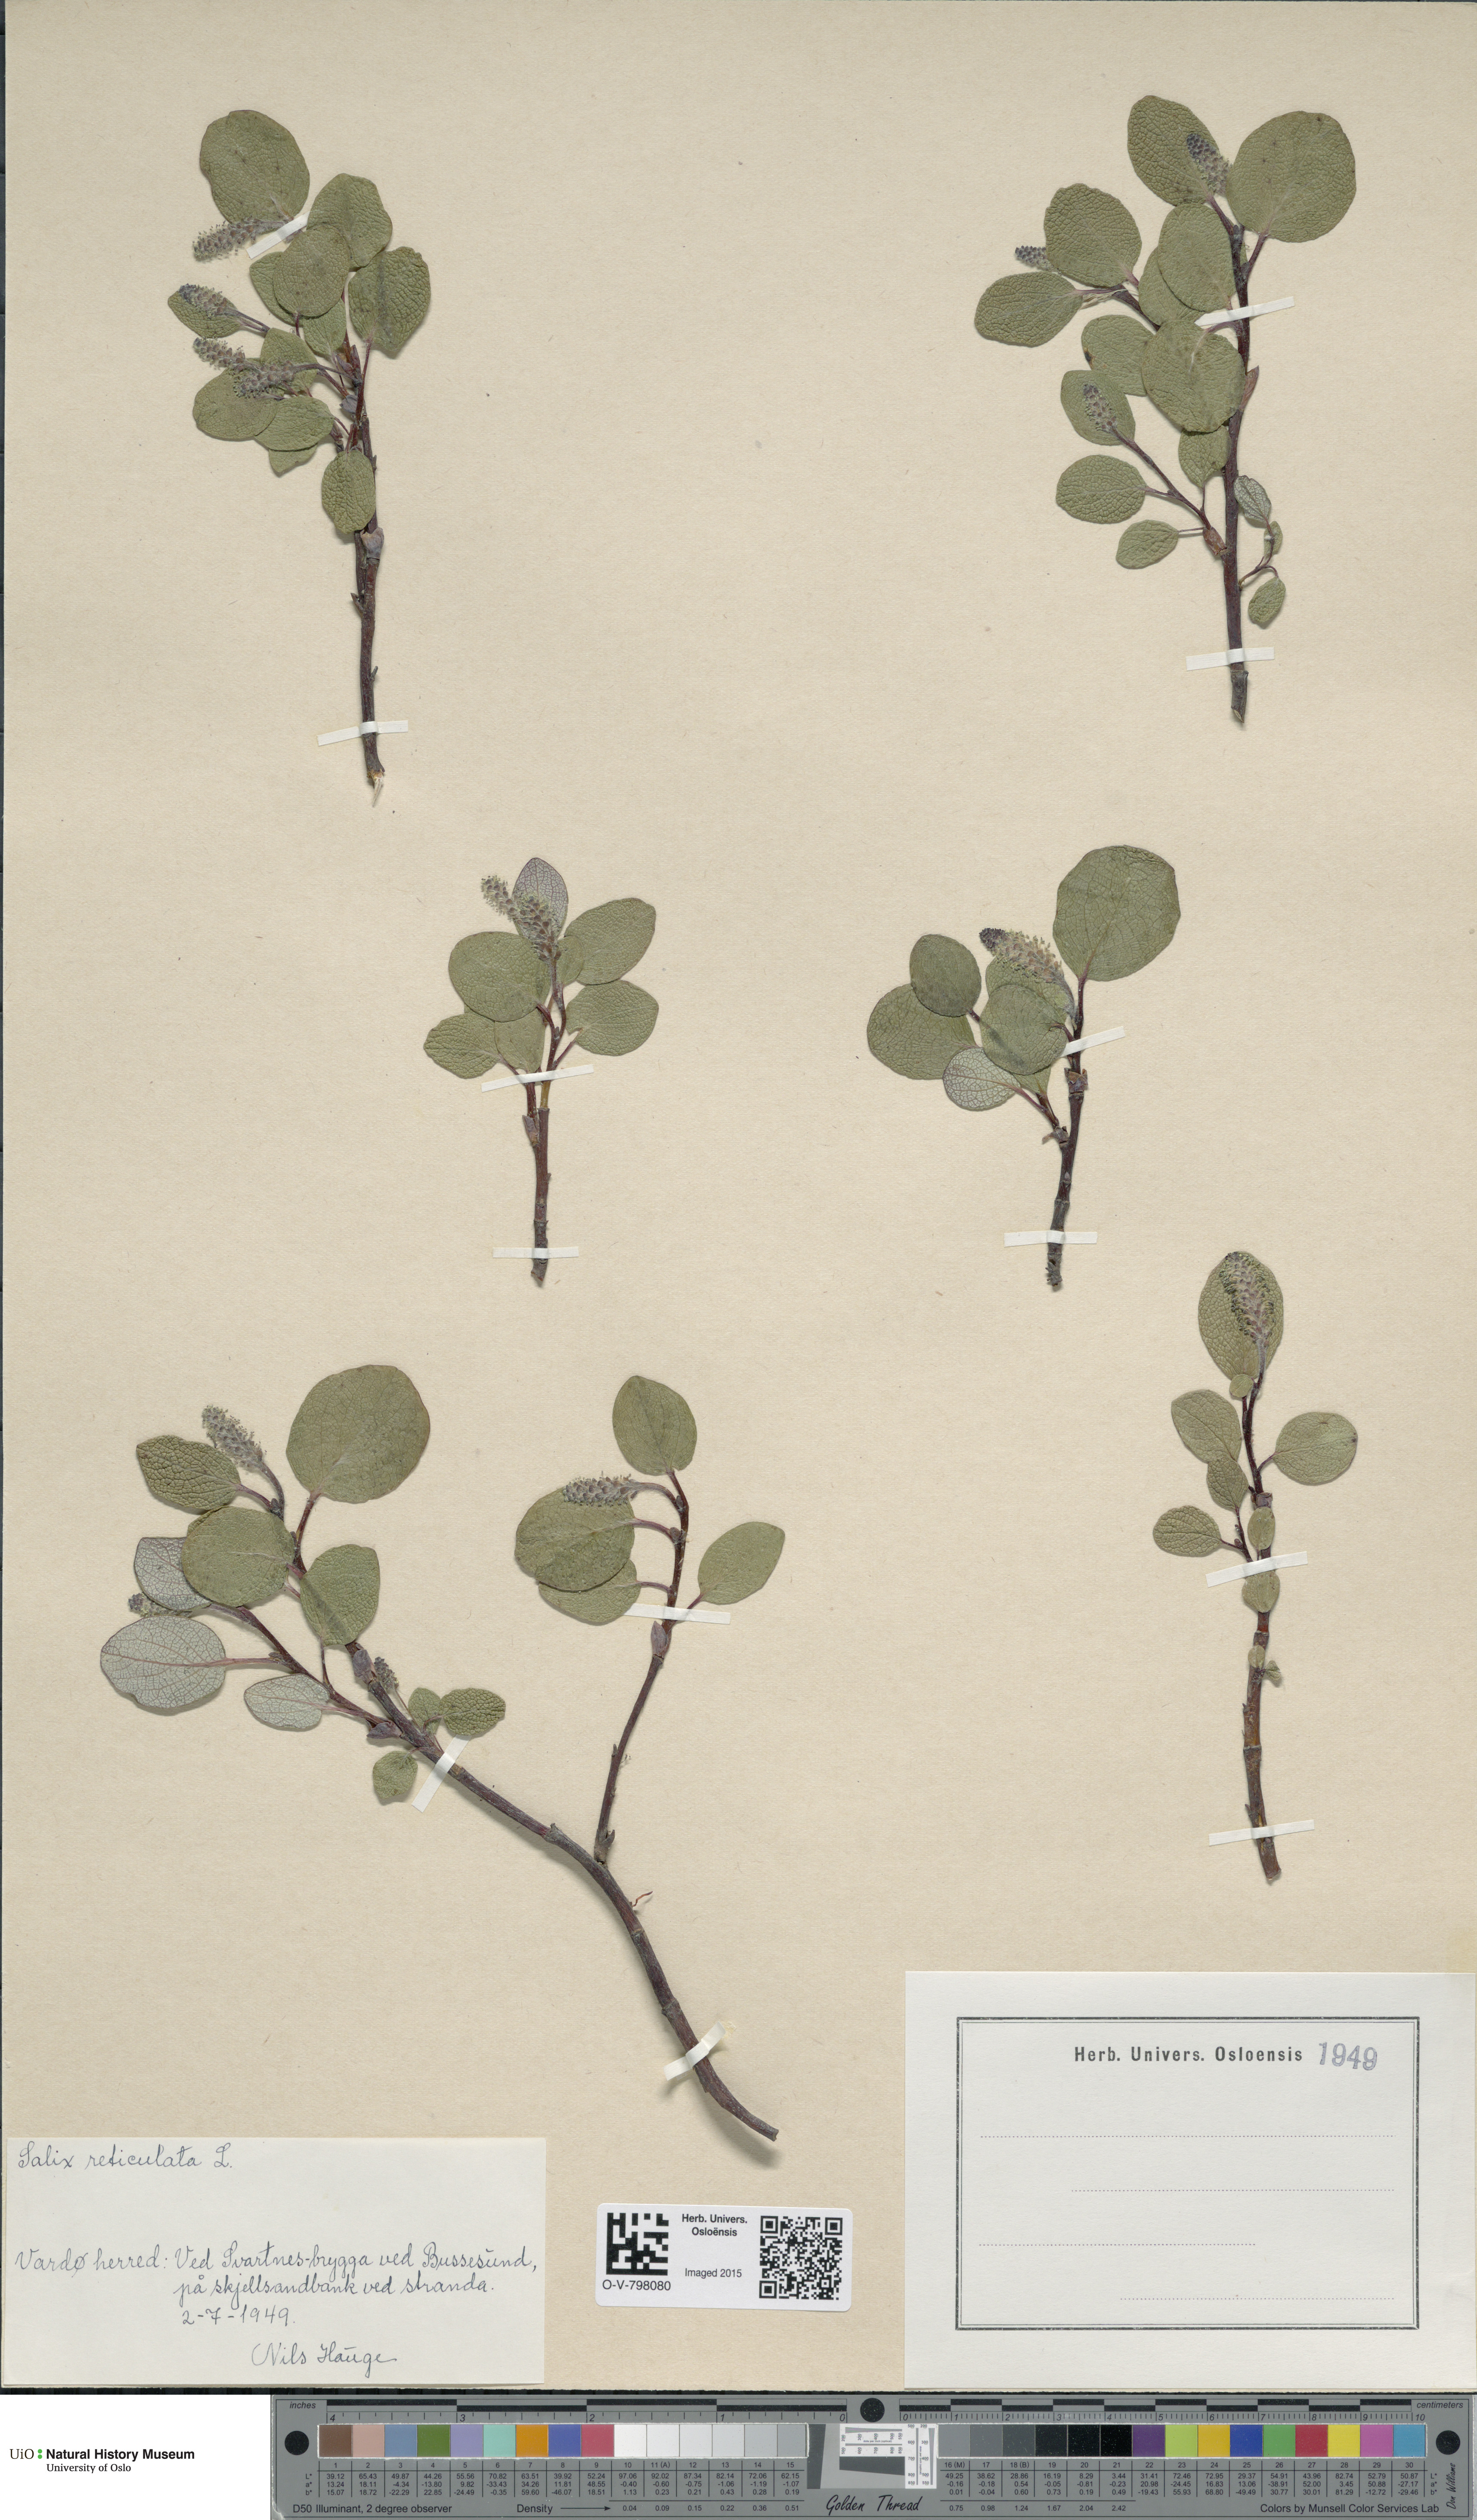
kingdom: Plantae
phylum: Tracheophyta
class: Magnoliopsida
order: Malpighiales
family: Salicaceae
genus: Salix
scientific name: Salix reticulata
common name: Net-leaved willow
